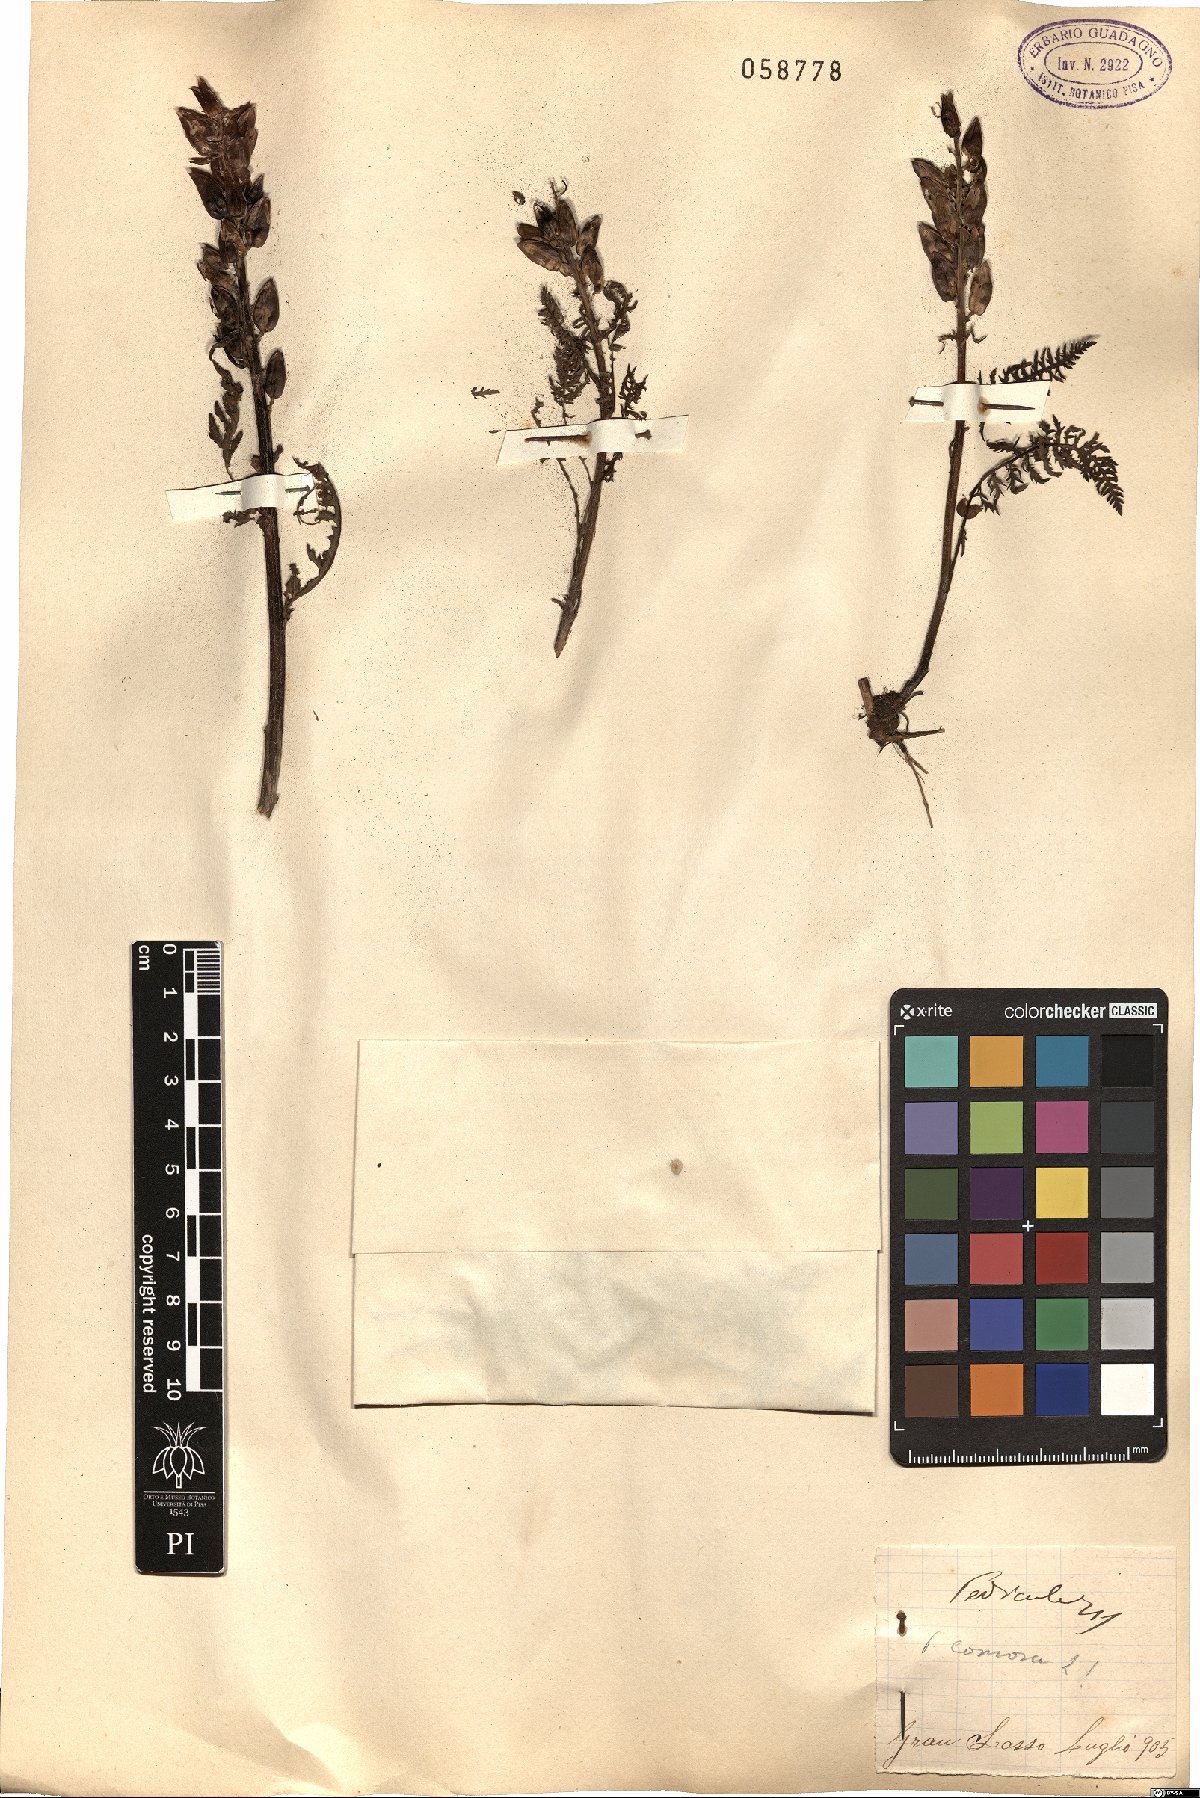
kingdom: Plantae
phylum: Tracheophyta
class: Magnoliopsida
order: Lamiales
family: Orobanchaceae
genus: Pedicularis
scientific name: Pedicularis comosa
